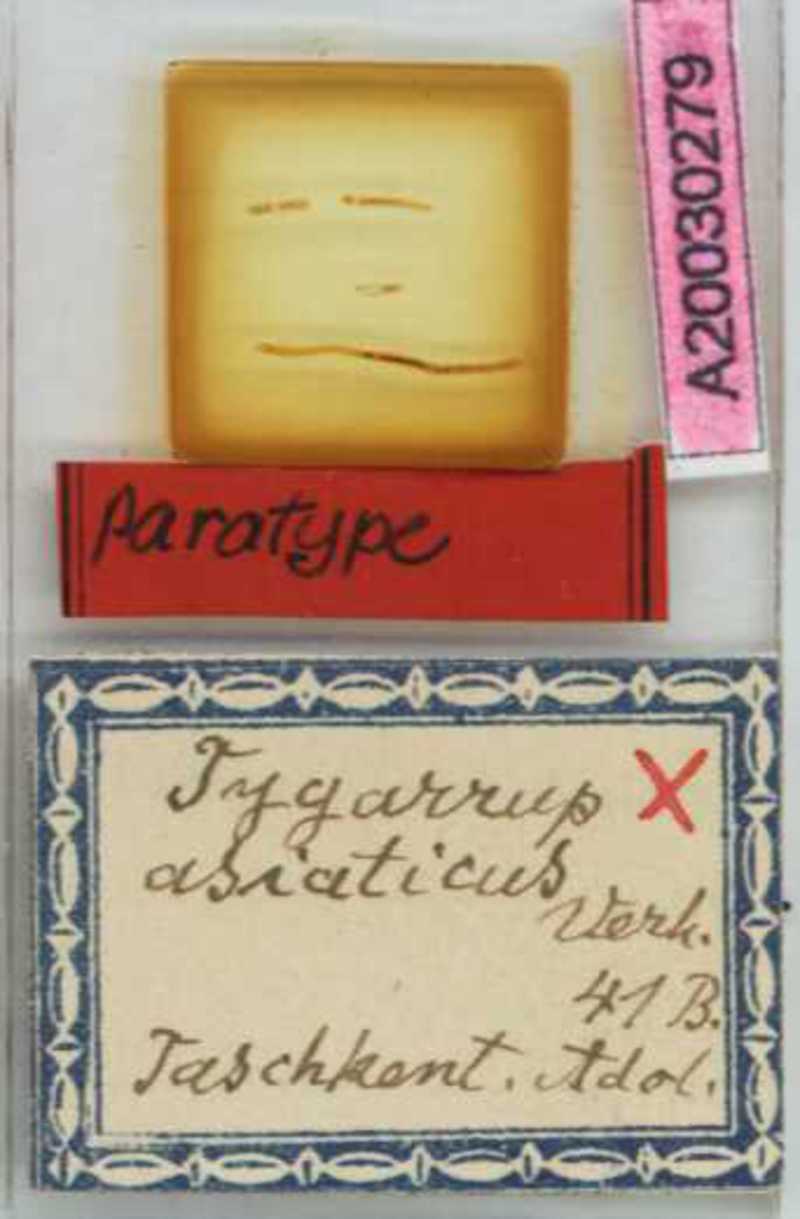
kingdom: Animalia
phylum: Arthropoda
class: Chilopoda
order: Geophilomorpha
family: Mecistocephalidae
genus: Krateraspis
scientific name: Krateraspis meinerti
